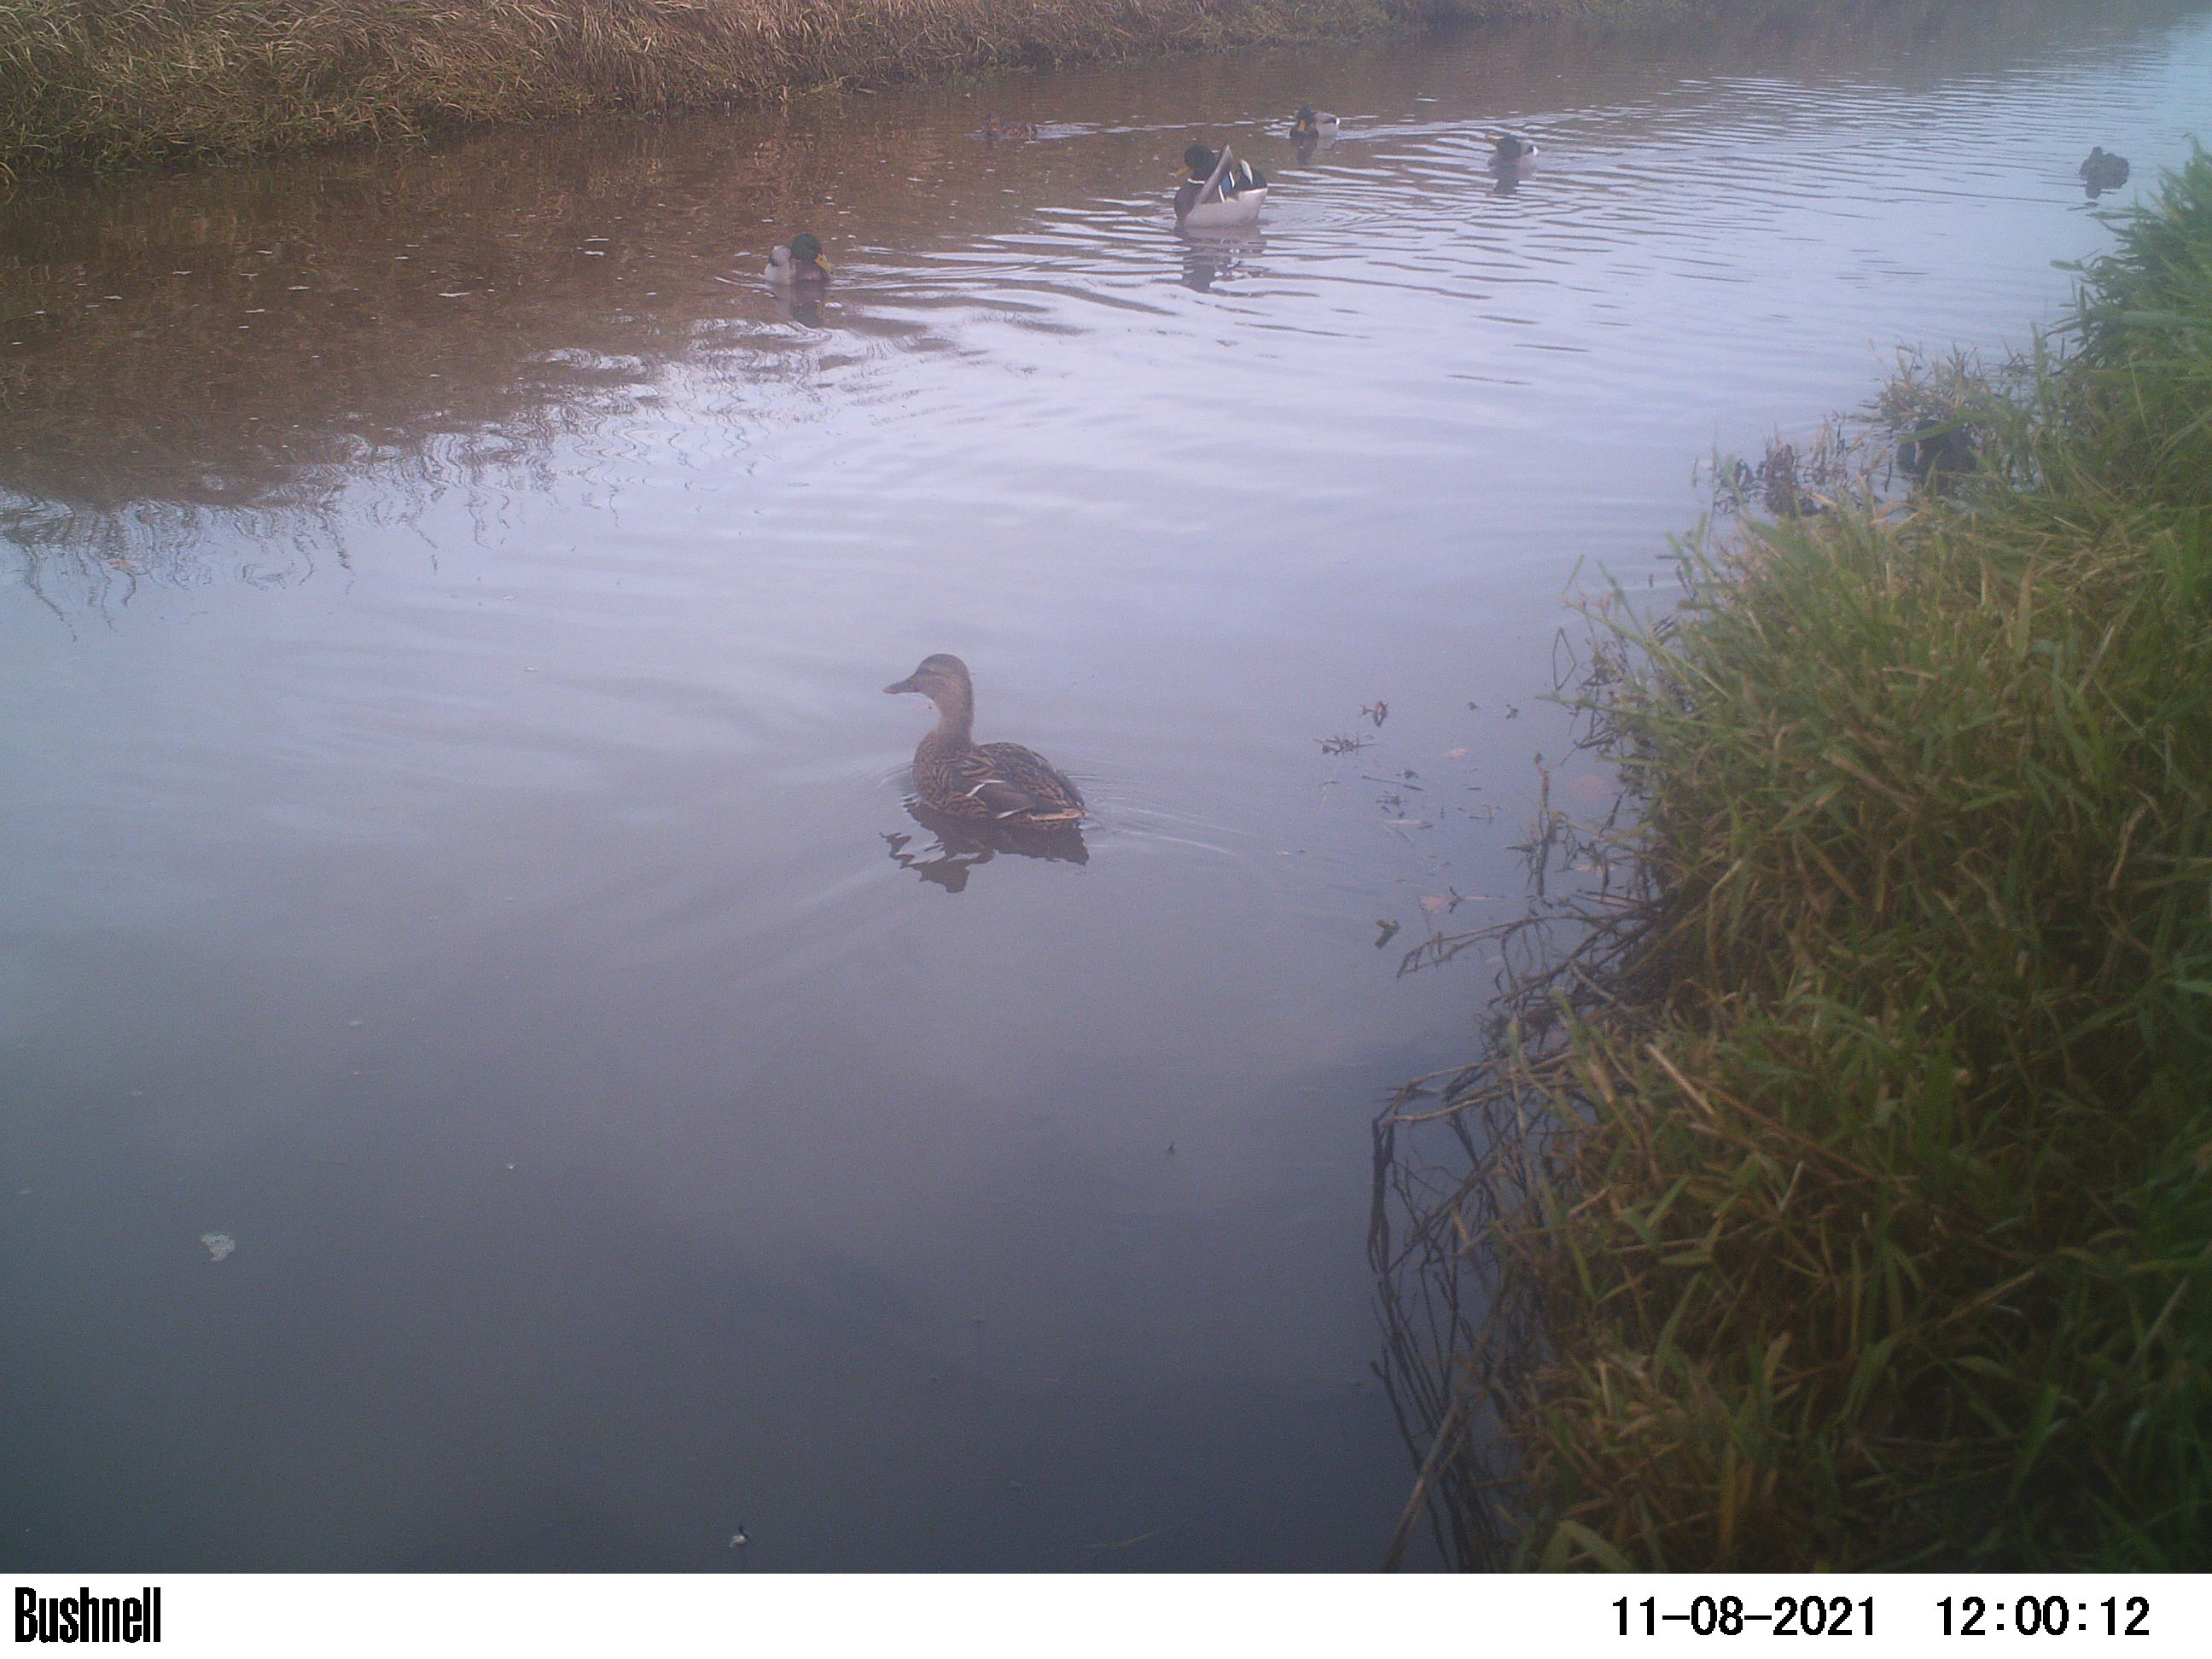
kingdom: Animalia
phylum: Chordata
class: Aves
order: Anseriformes
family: Anatidae
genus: Anas
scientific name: Anas
